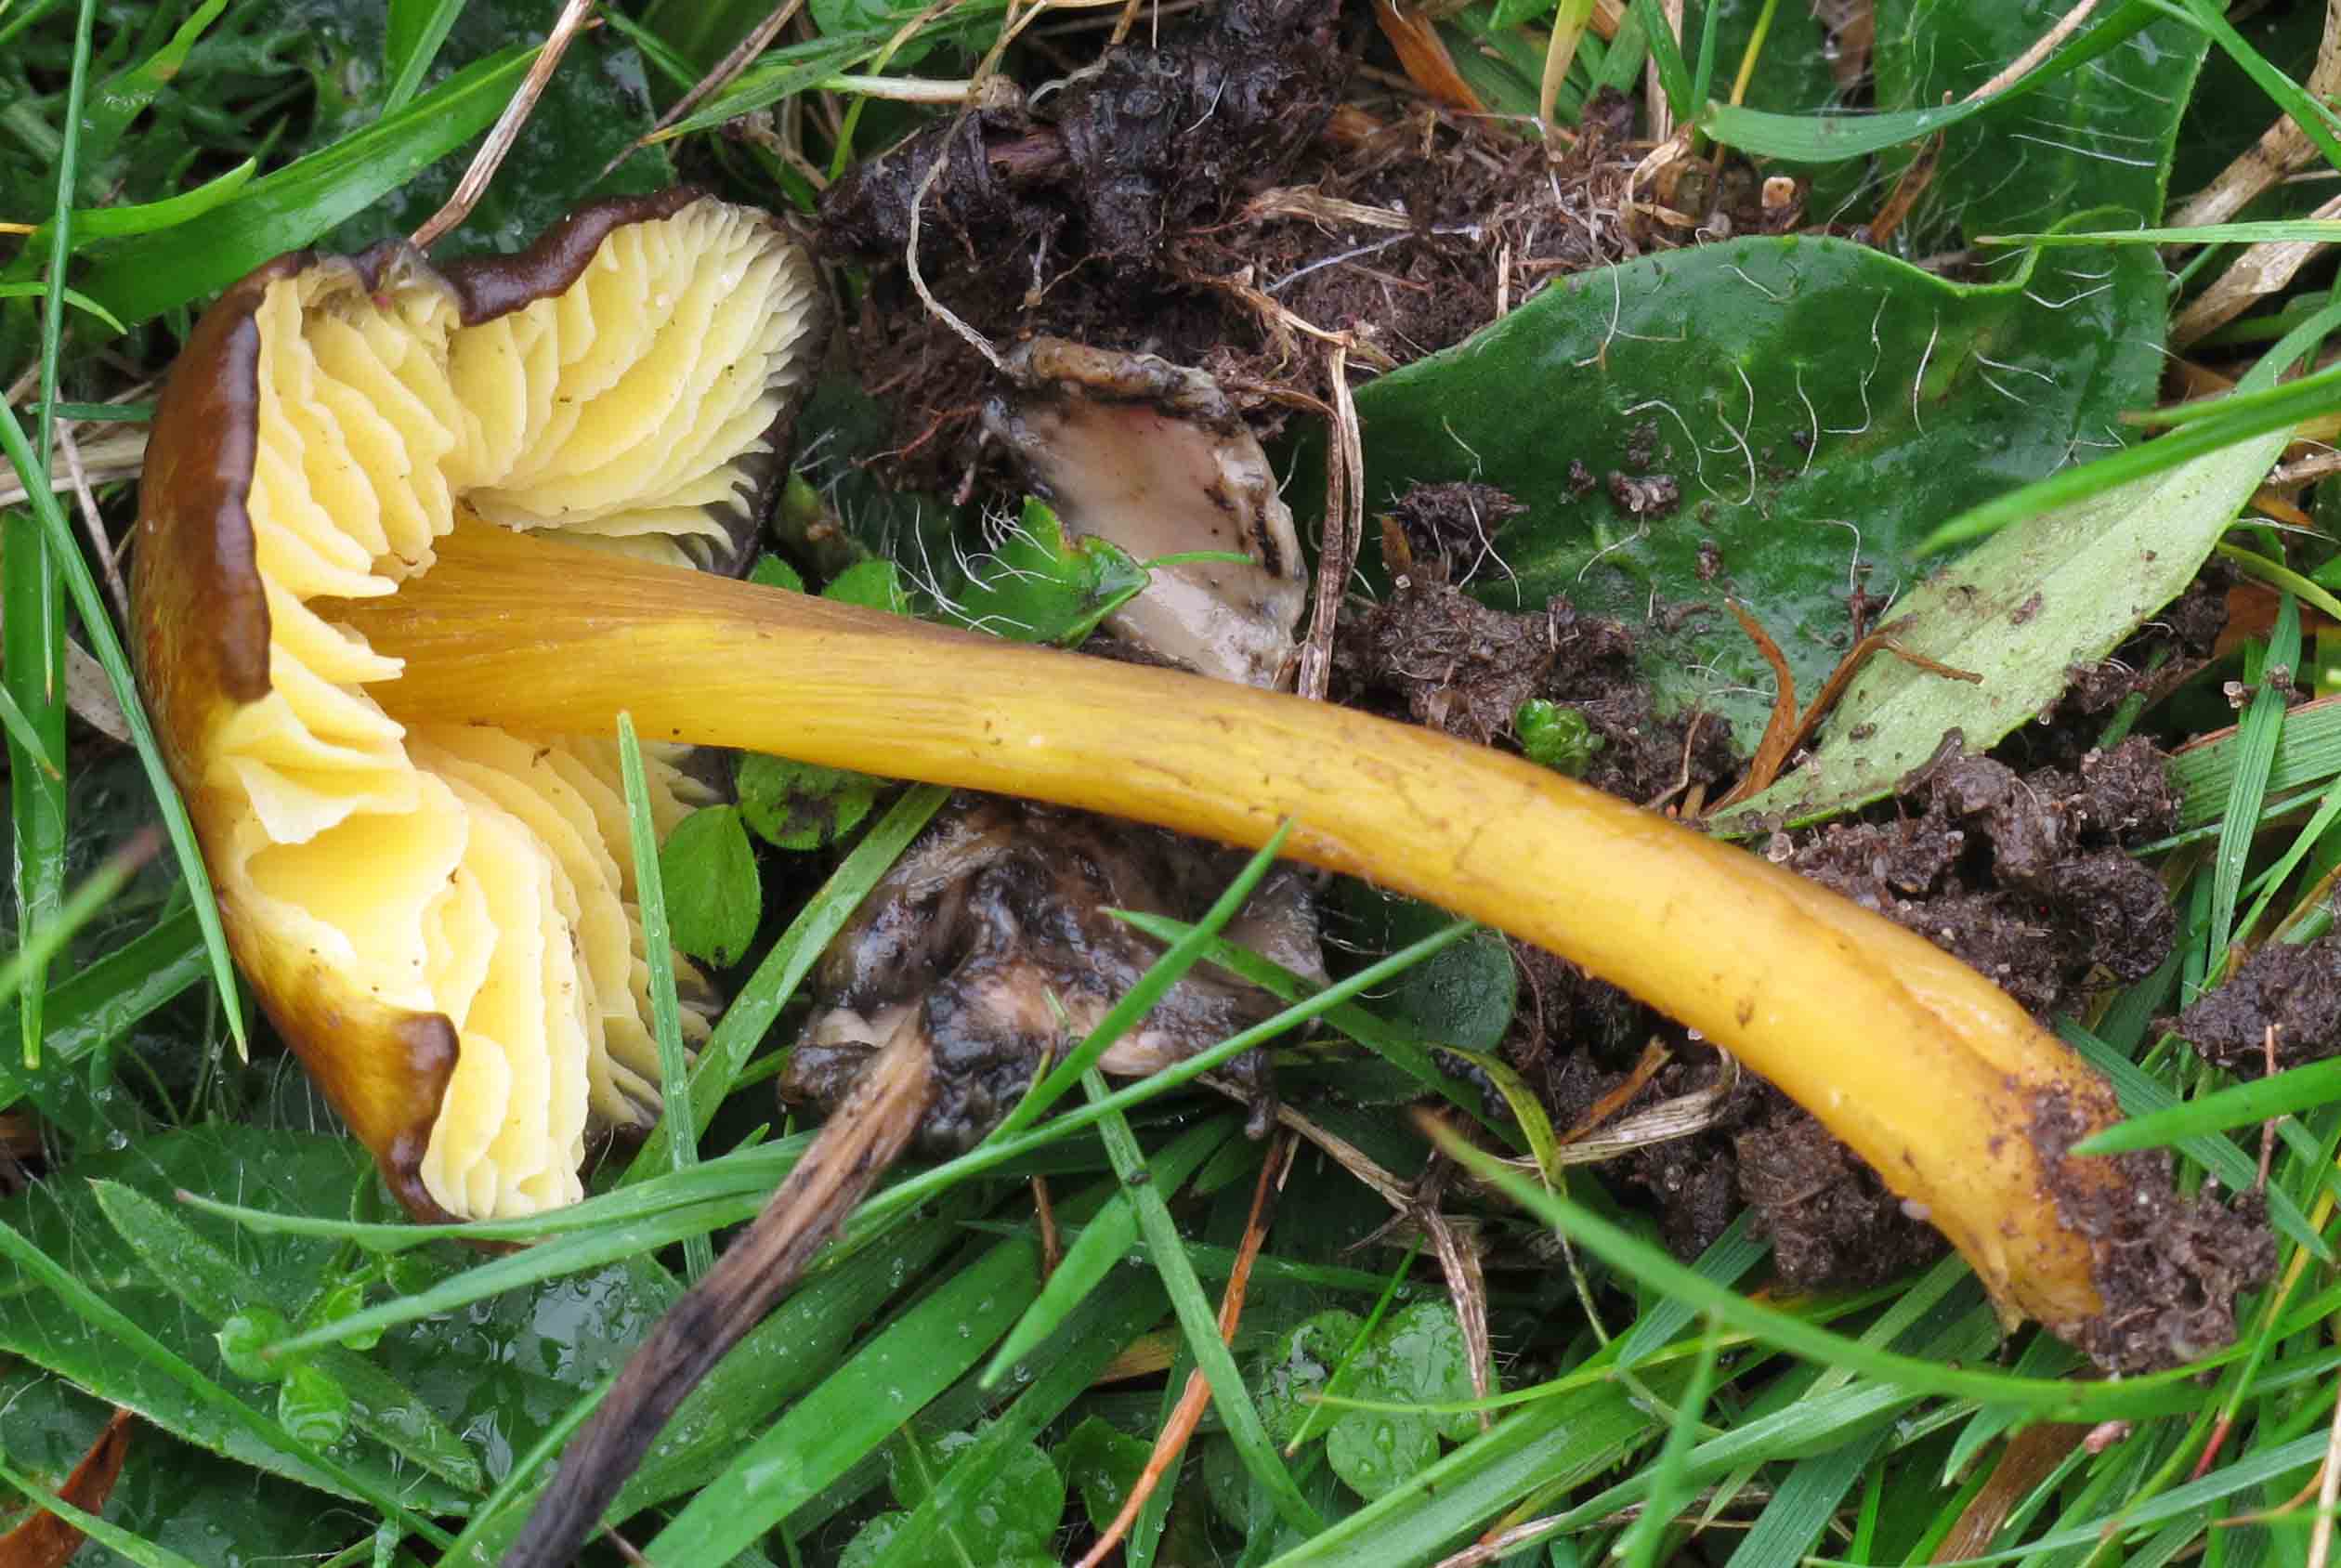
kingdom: Fungi
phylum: Basidiomycota
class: Agaricomycetes
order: Agaricales
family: Hygrophoraceae
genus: Hygrocybe
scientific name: Hygrocybe spadicea
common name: daddelbrun vokshat
